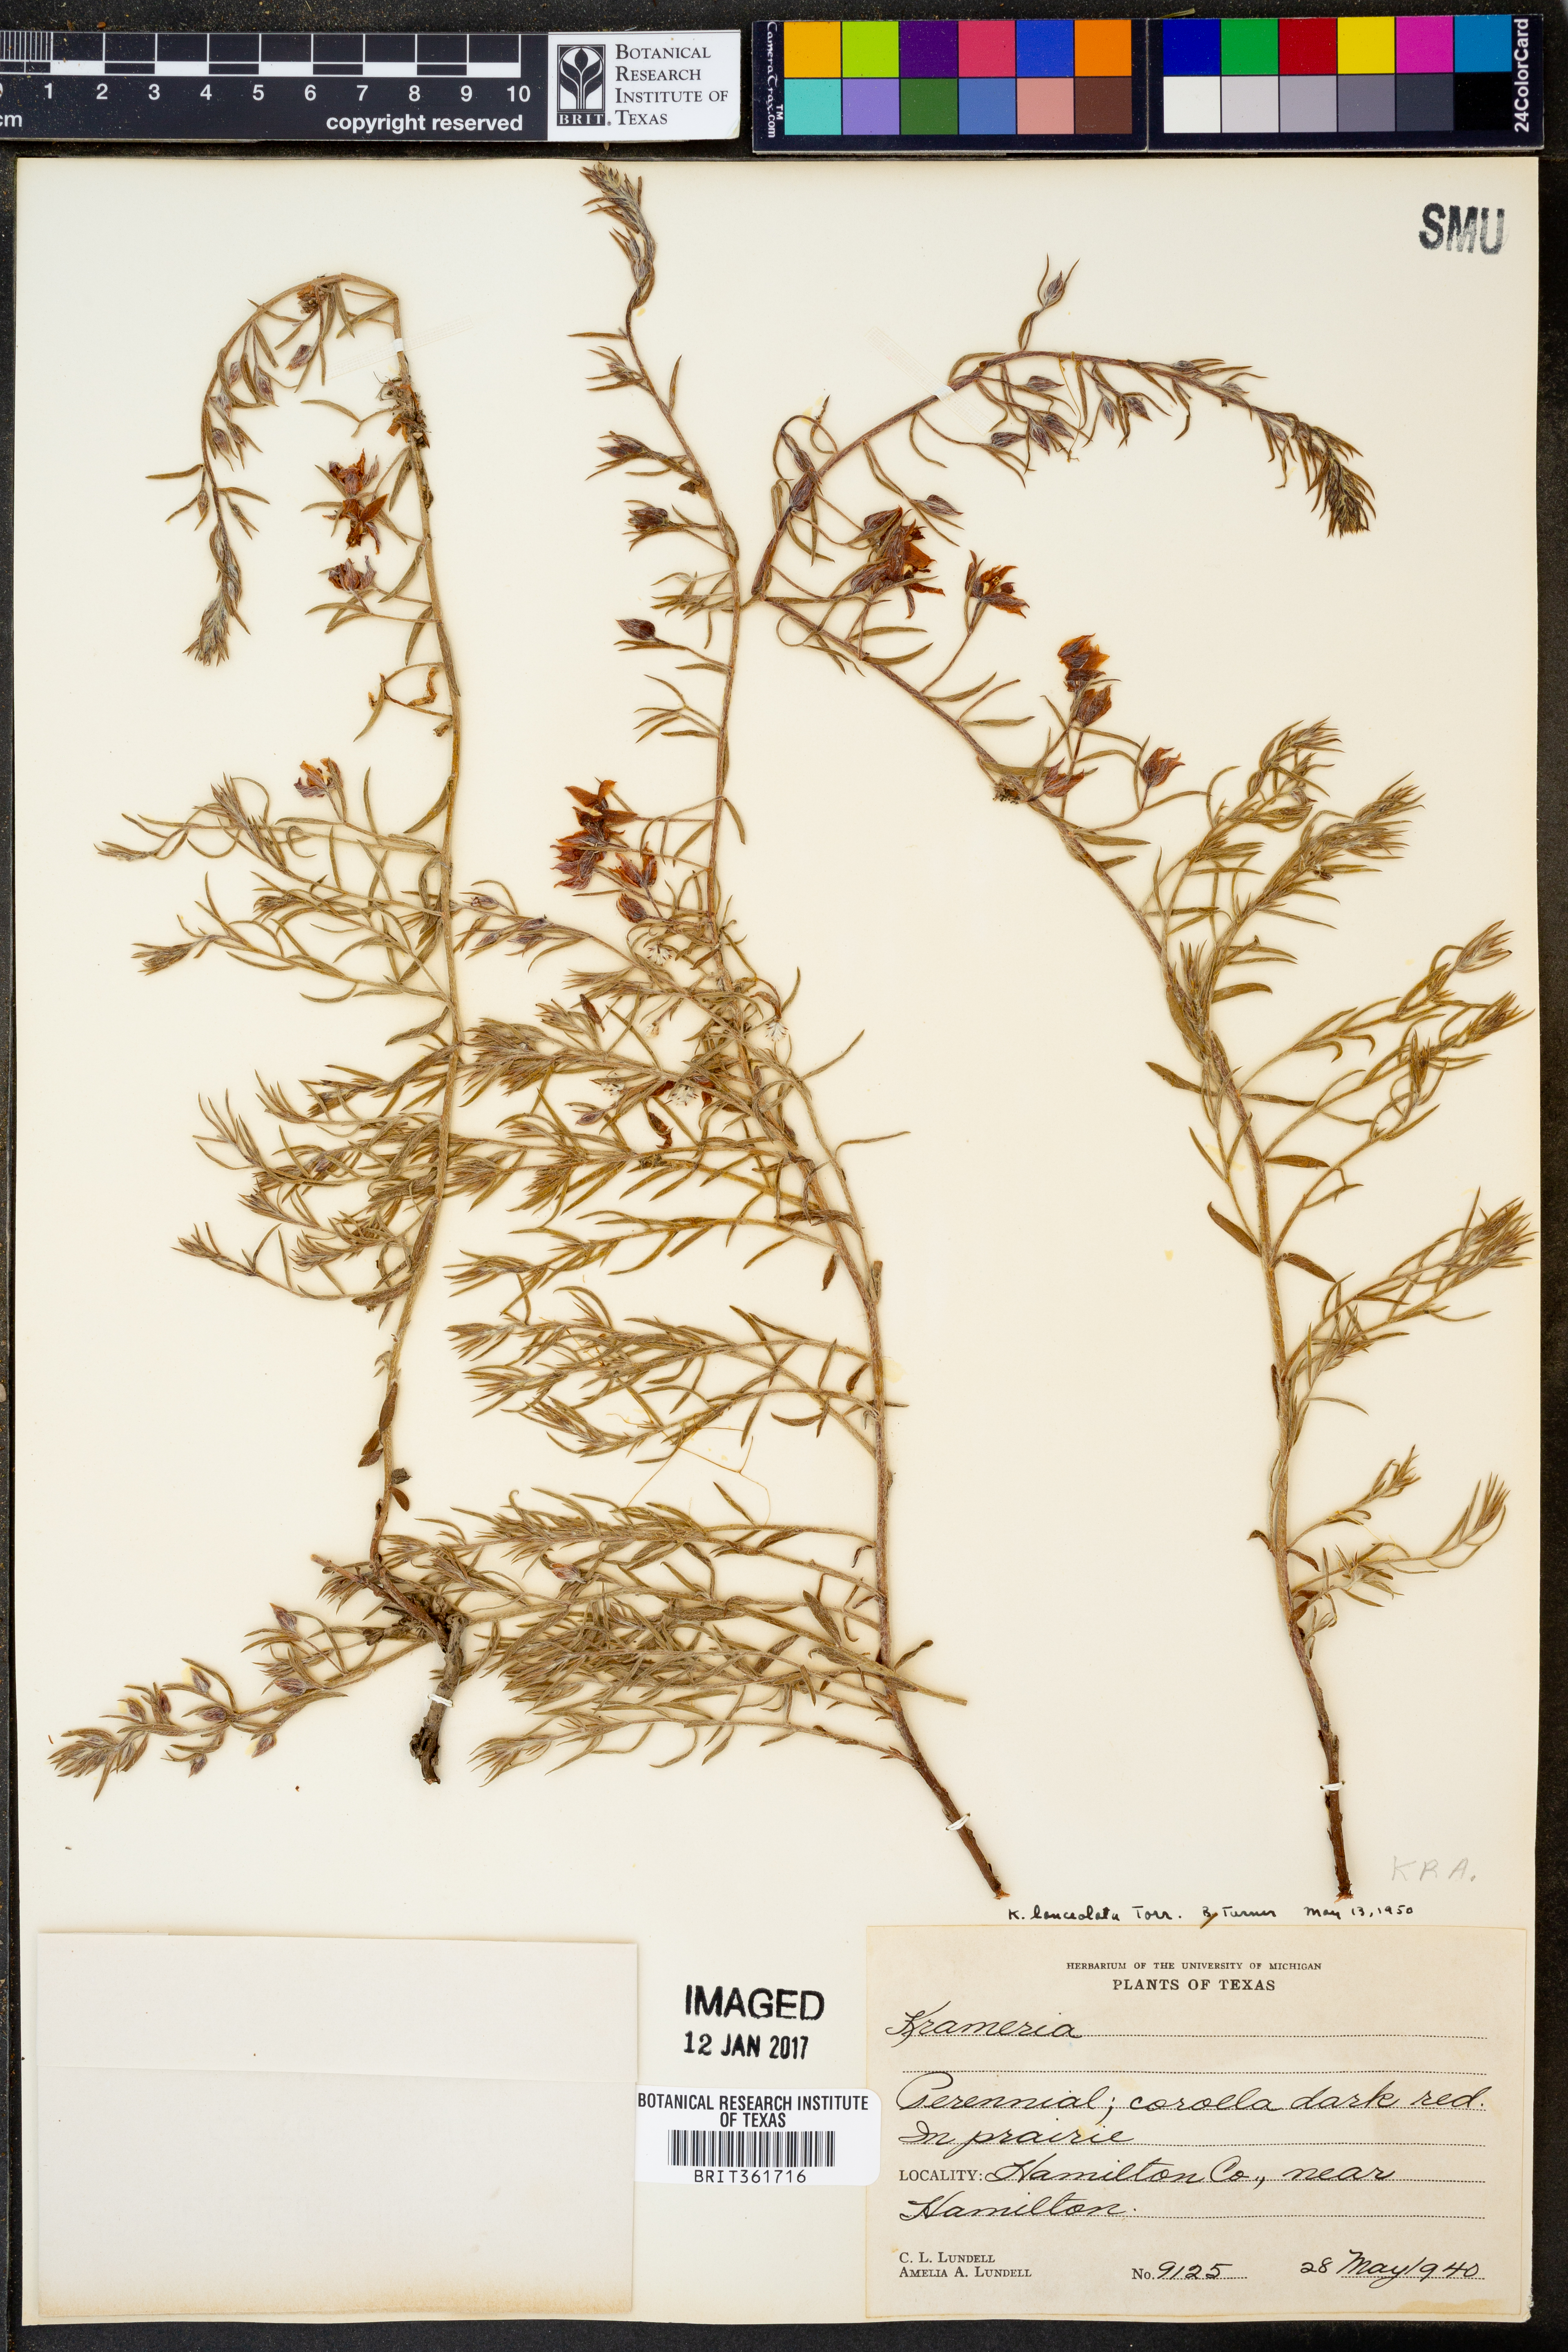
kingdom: Plantae
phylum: Tracheophyta
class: Magnoliopsida
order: Zygophyllales
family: Krameriaceae
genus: Krameria
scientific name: Krameria lanceolata
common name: Ratany
